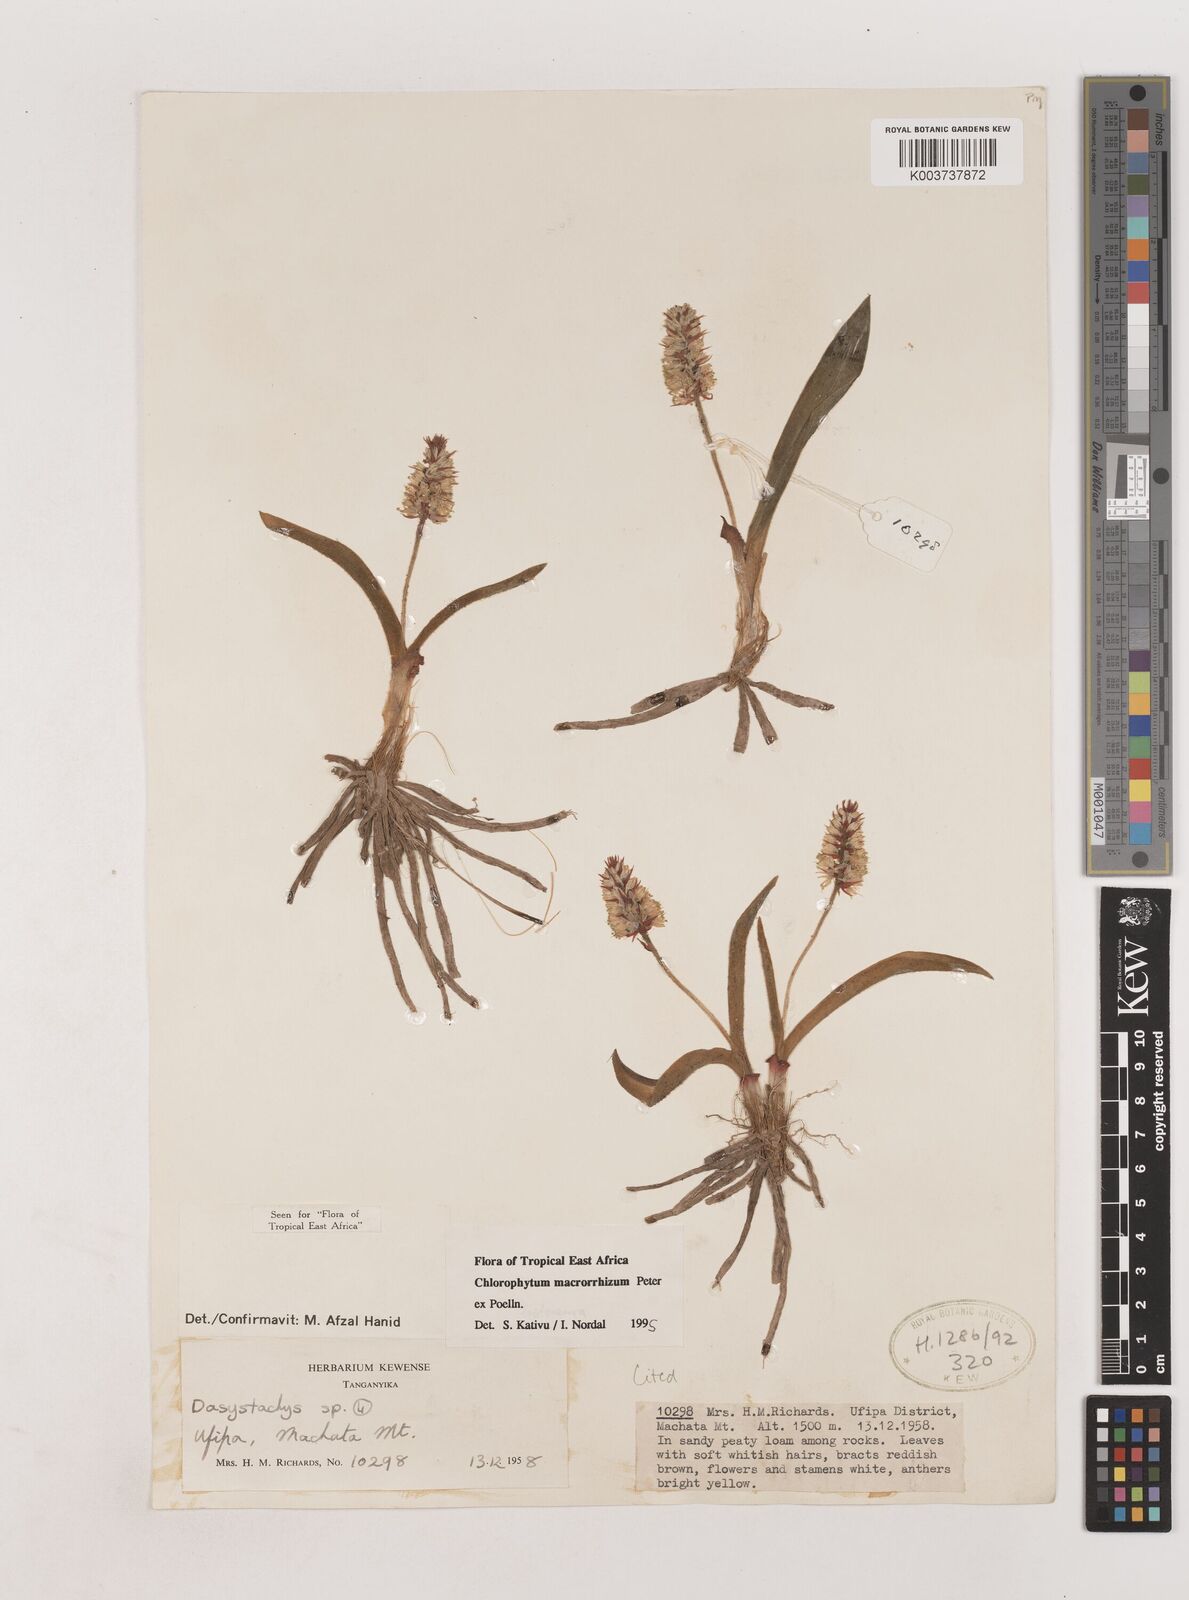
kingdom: Plantae
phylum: Tracheophyta
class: Liliopsida
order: Asparagales
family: Asparagaceae
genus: Chlorophytum
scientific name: Chlorophytum macrorrhizum
